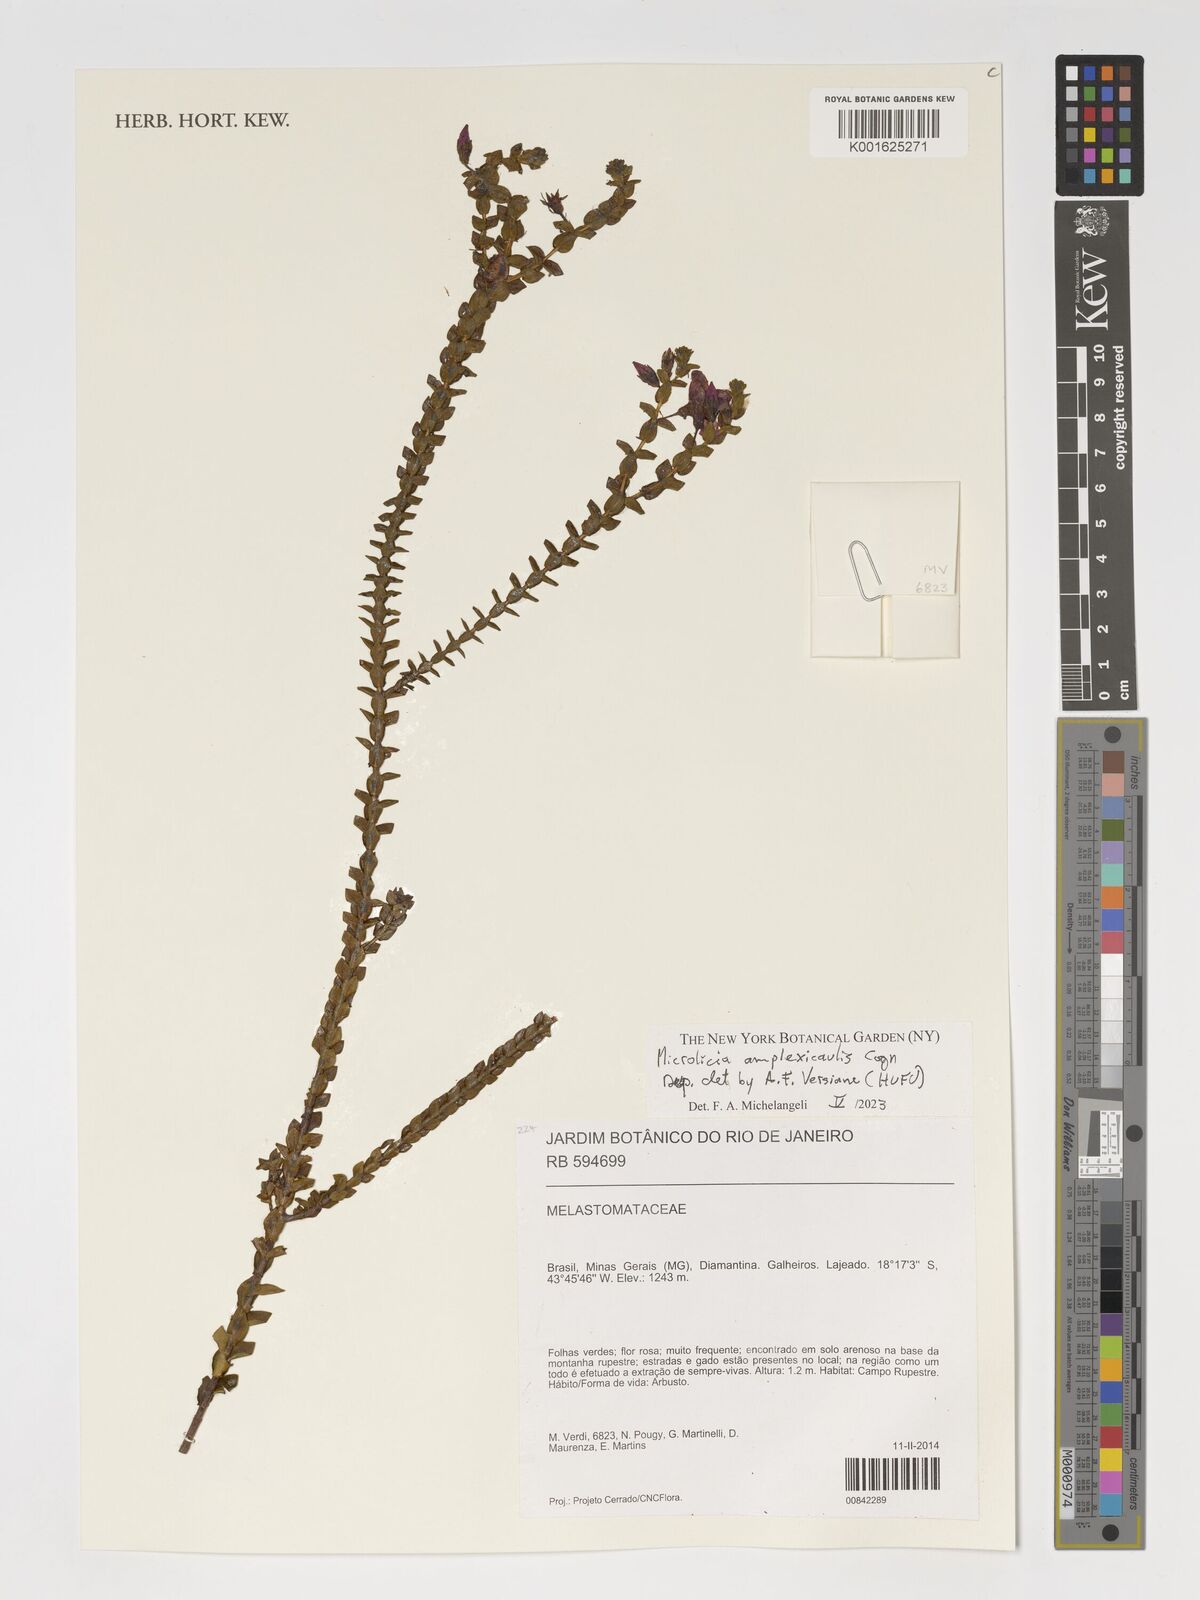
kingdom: Plantae
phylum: Tracheophyta
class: Magnoliopsida
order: Myrtales
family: Melastomataceae
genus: Microlicia
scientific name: Microlicia amplexicaulis
